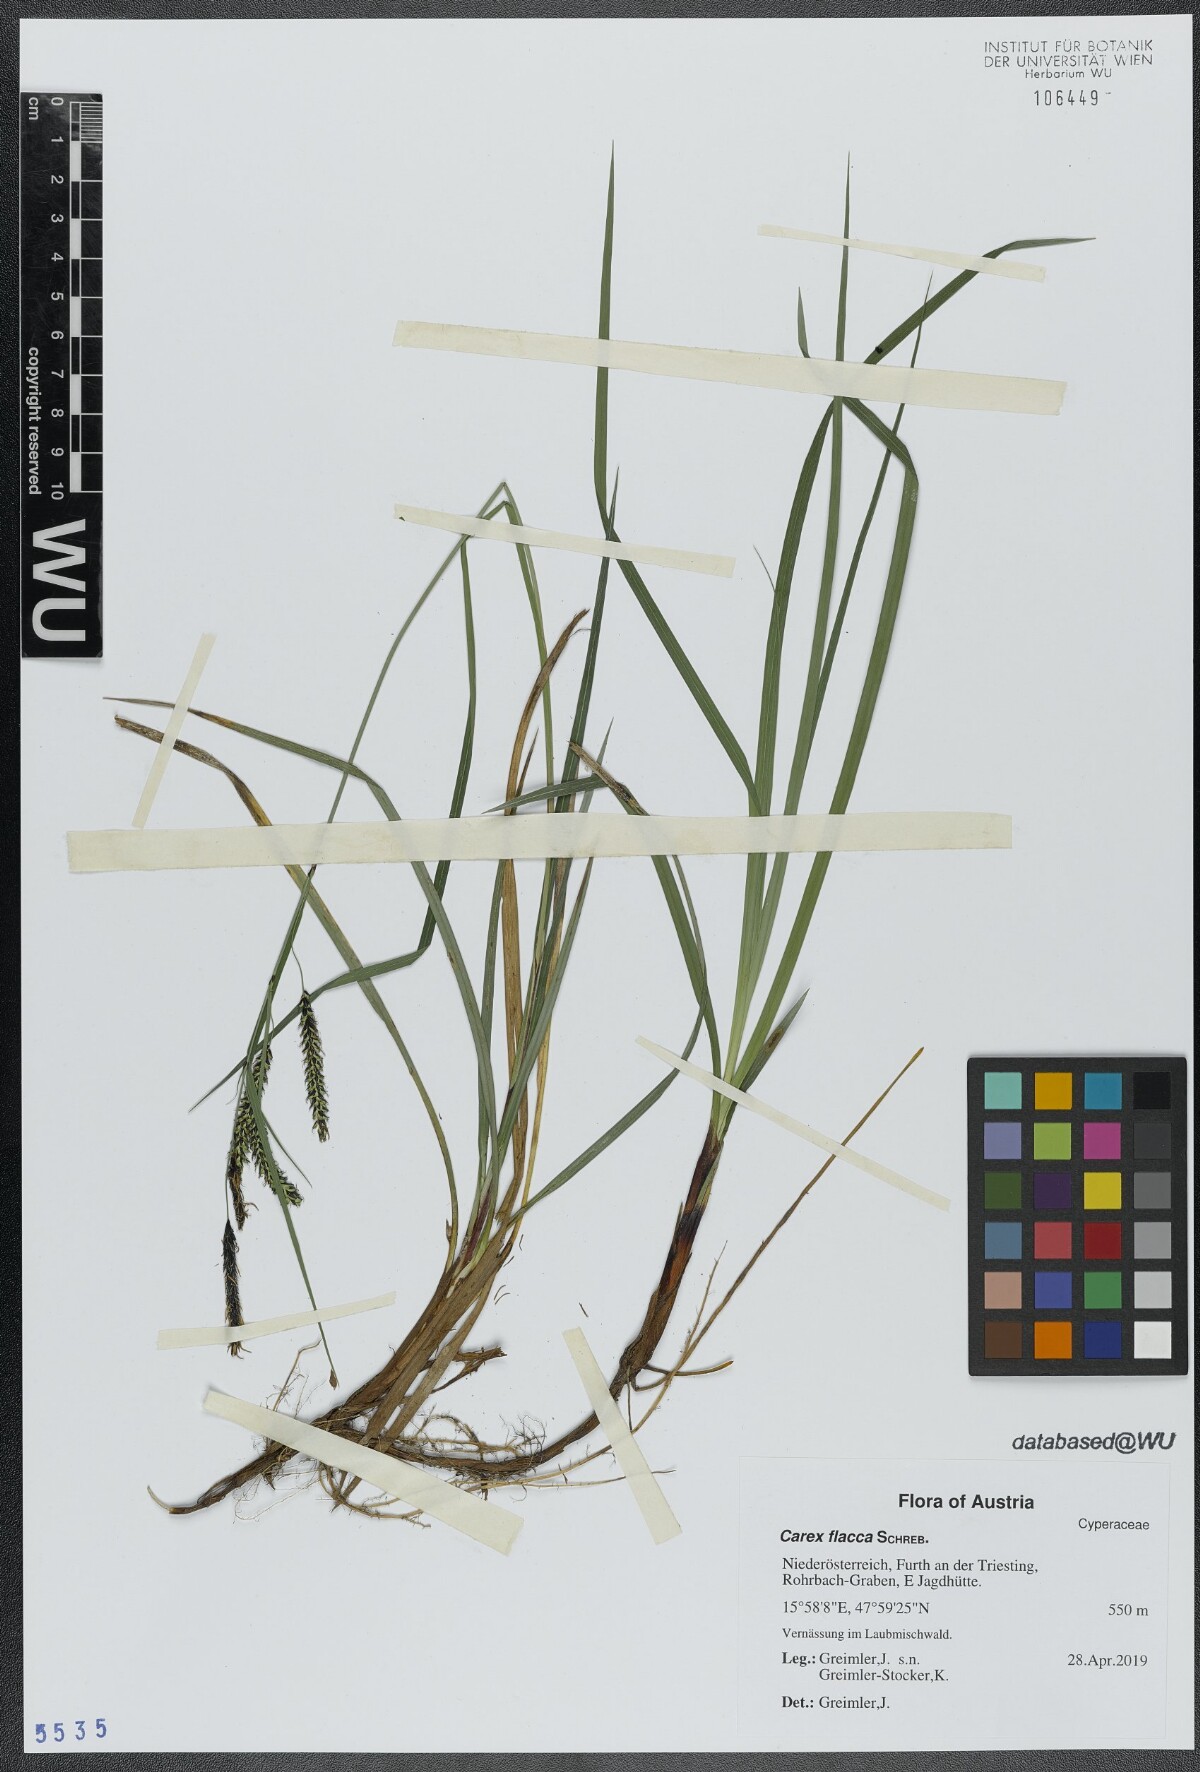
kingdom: Plantae
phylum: Tracheophyta
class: Liliopsida
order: Poales
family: Cyperaceae
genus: Carex
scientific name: Carex flacca
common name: Glaucous sedge
